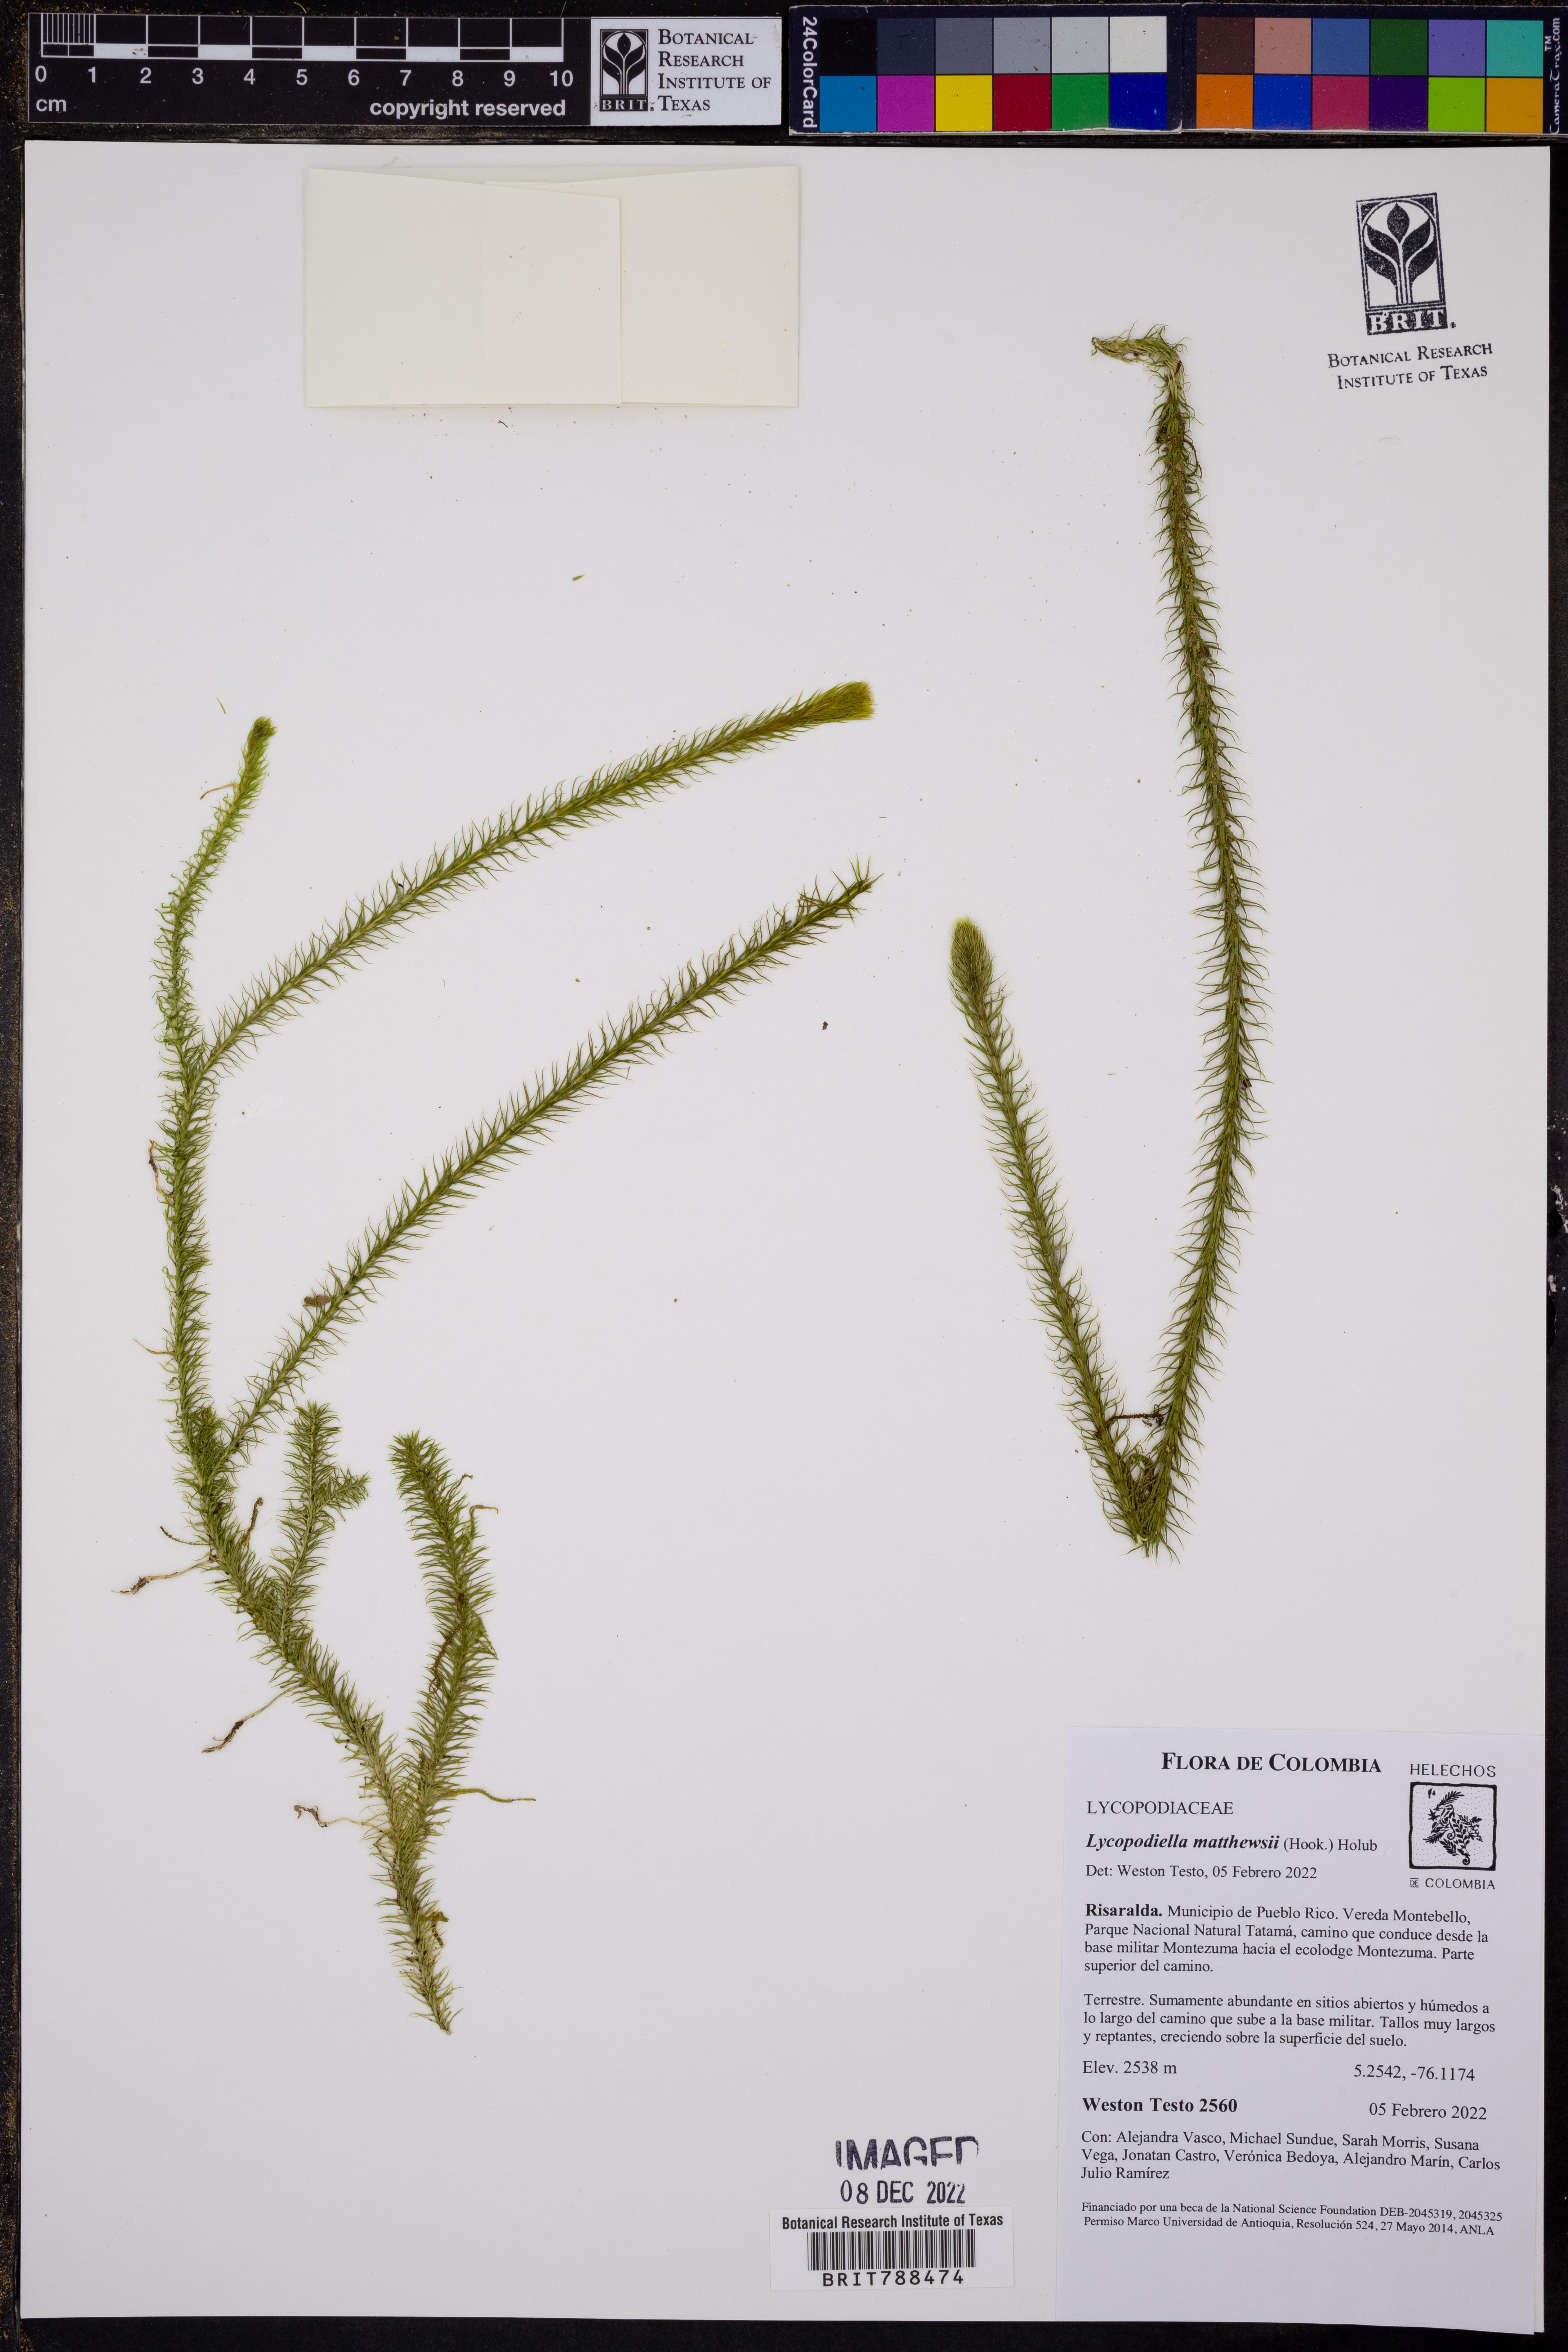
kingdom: Plantae
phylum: Tracheophyta
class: Lycopodiopsida
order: Lycopodiales
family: Lycopodiaceae
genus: Lycopodiella
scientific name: Lycopodiella matthewsii
